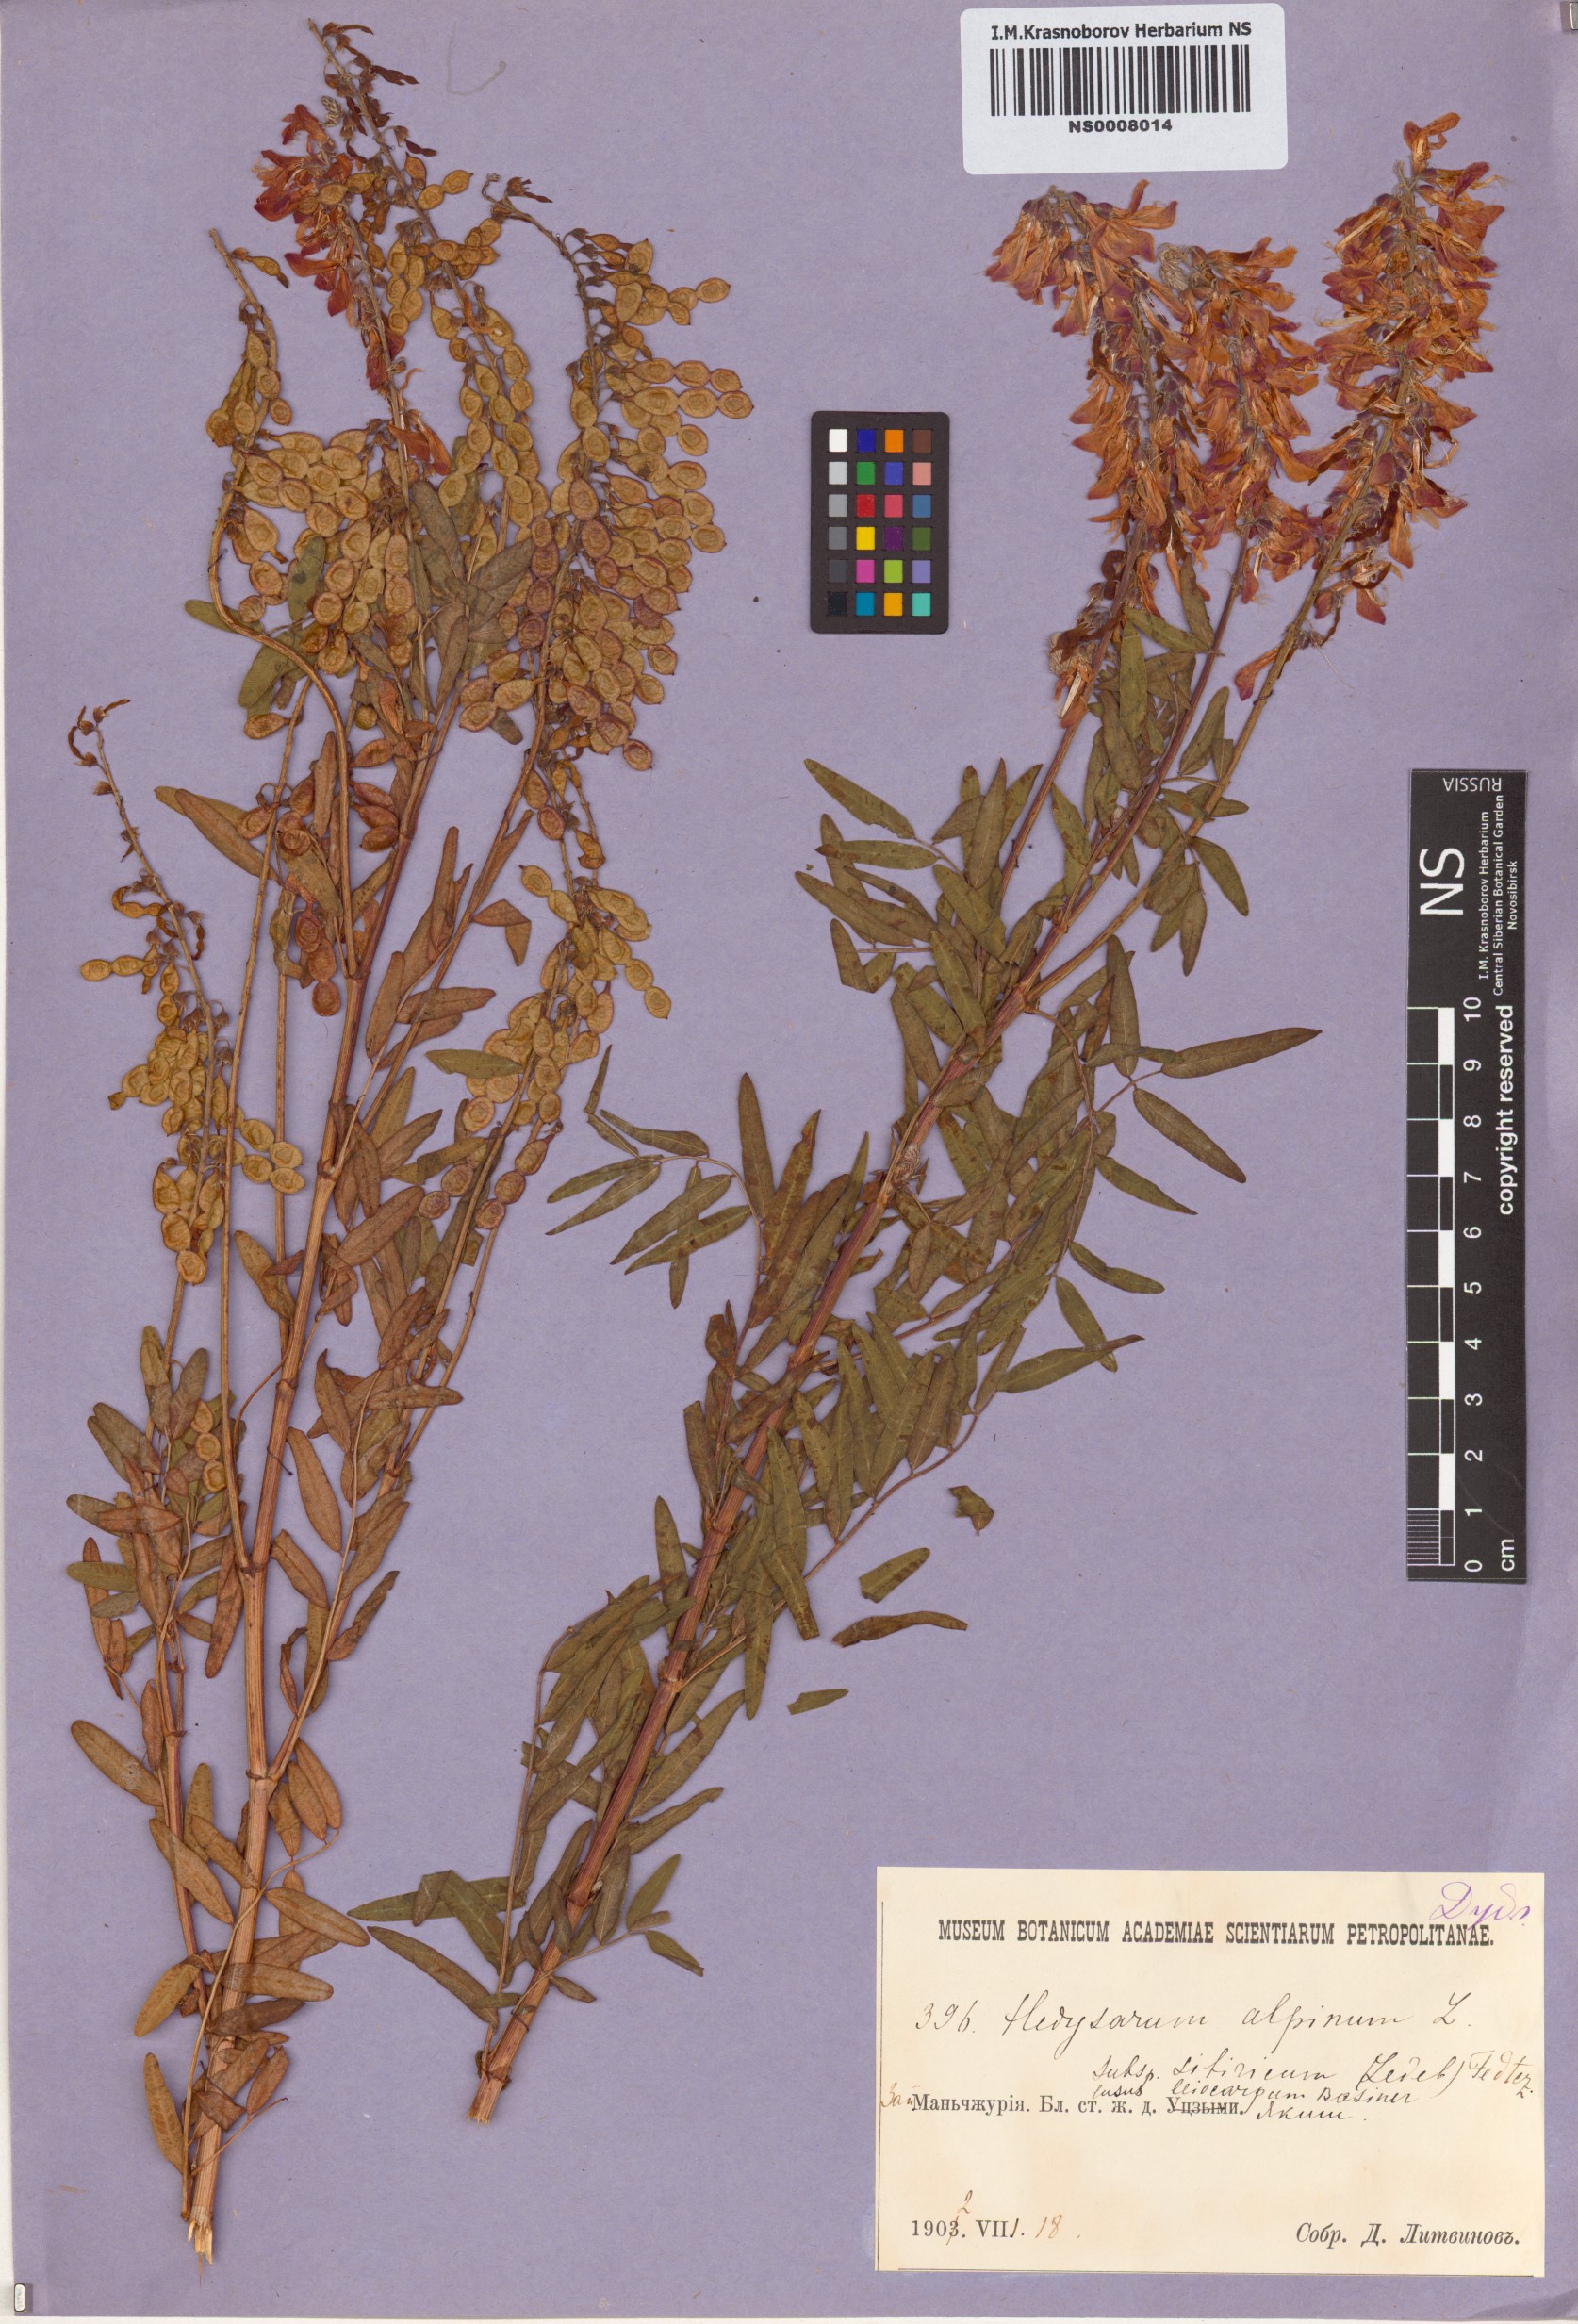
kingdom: Plantae
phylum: Tracheophyta
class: Magnoliopsida
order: Fabales
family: Fabaceae
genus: Hedysarum
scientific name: Hedysarum alpinum
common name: Alpine sweet-vetch
